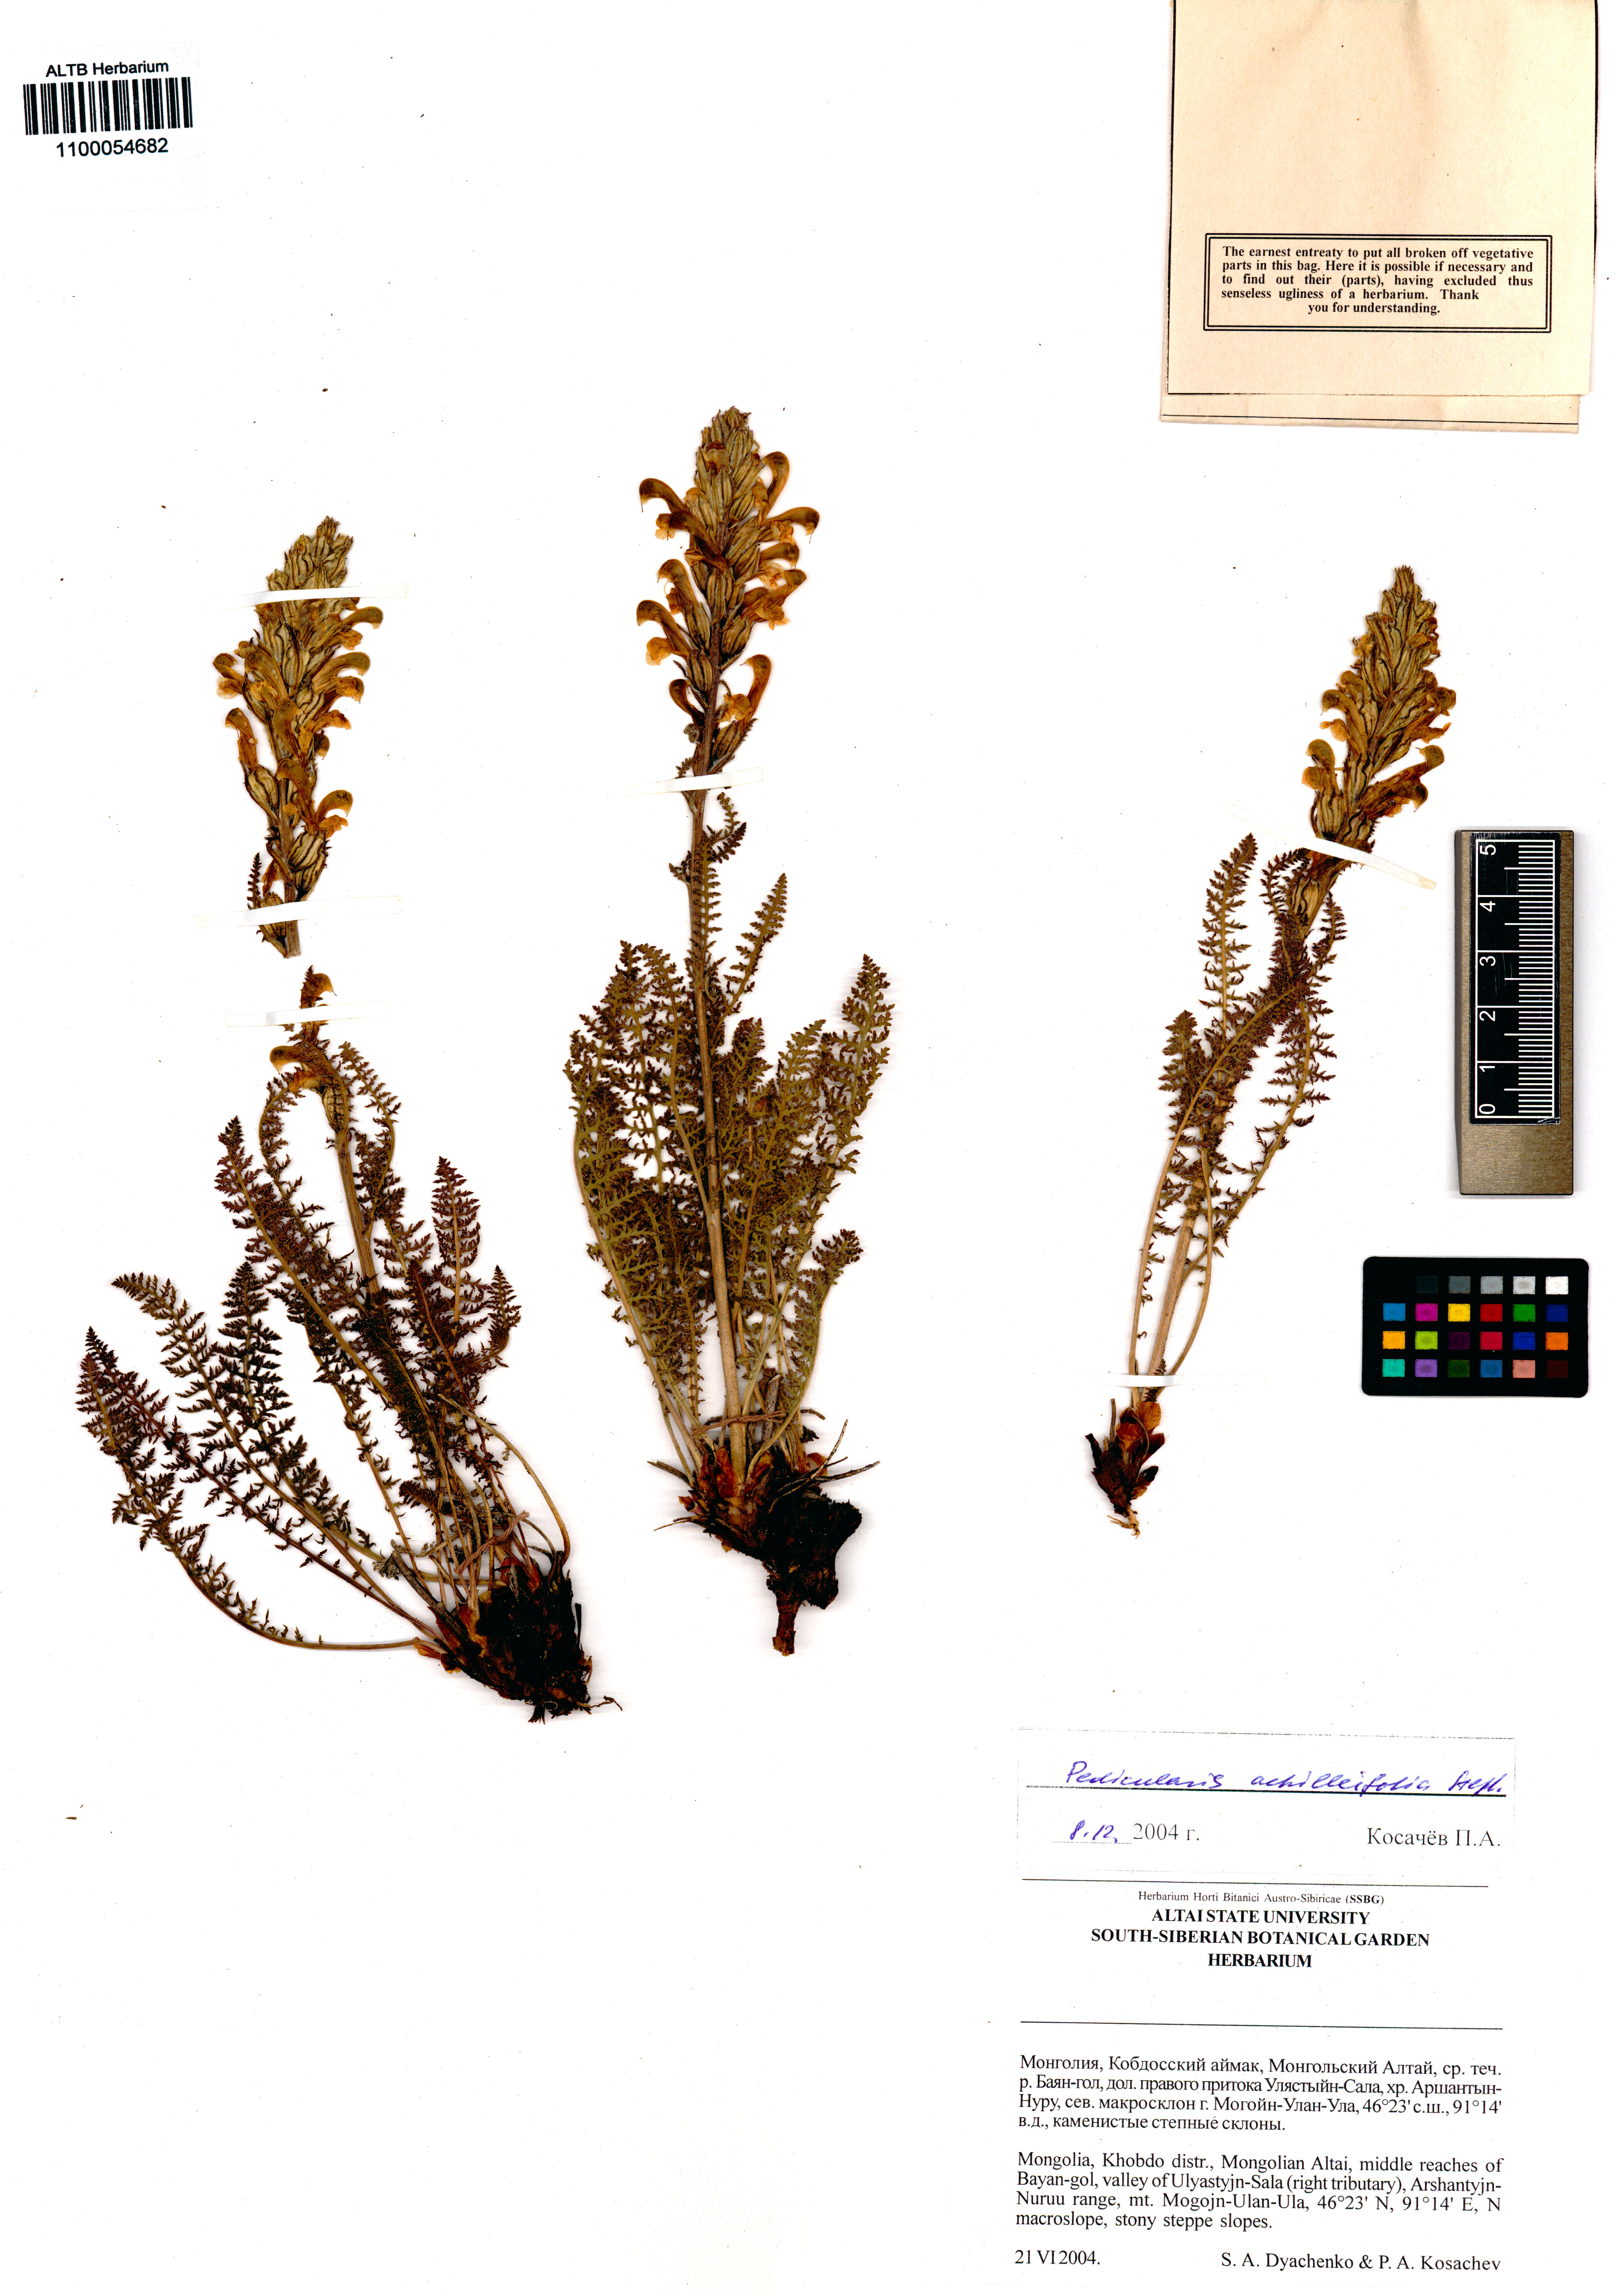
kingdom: Plantae
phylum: Tracheophyta
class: Magnoliopsida
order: Lamiales
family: Orobanchaceae
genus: Pedicularis
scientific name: Pedicularis achilleifolia
